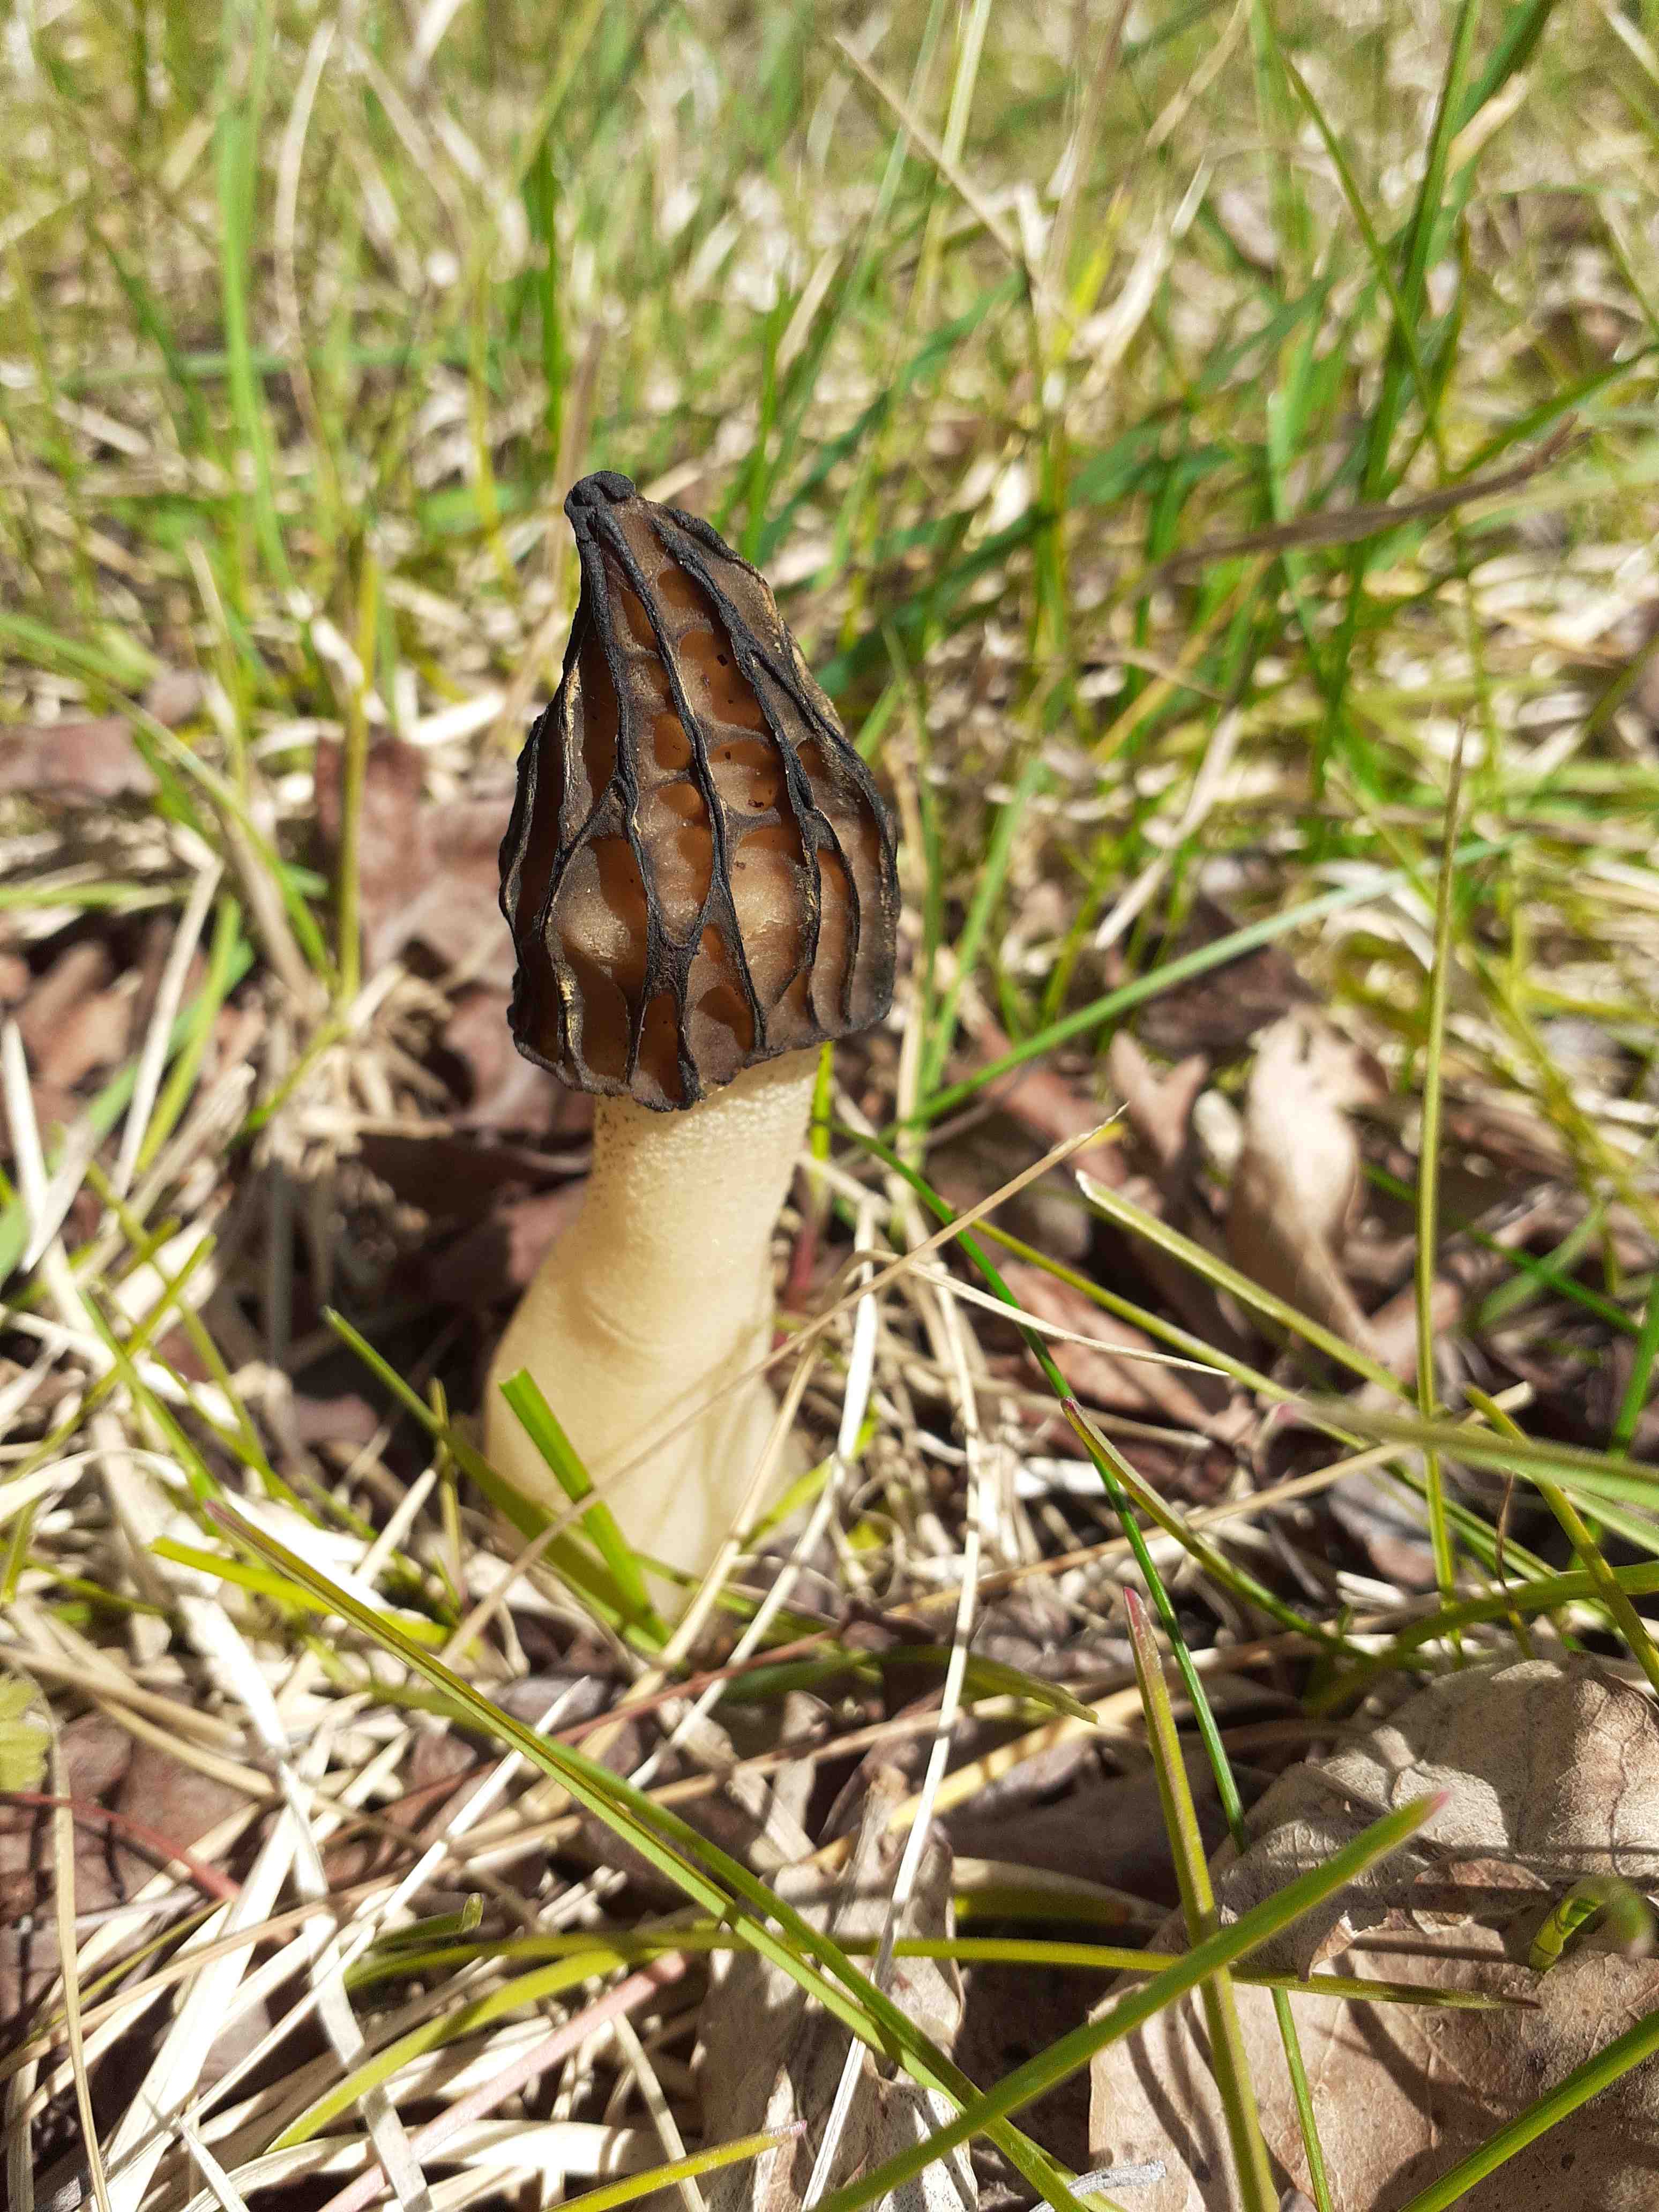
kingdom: Fungi
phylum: Ascomycota
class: Pezizomycetes
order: Pezizales
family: Morchellaceae
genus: Morchella
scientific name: Morchella semilibera
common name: hætte-morkel
